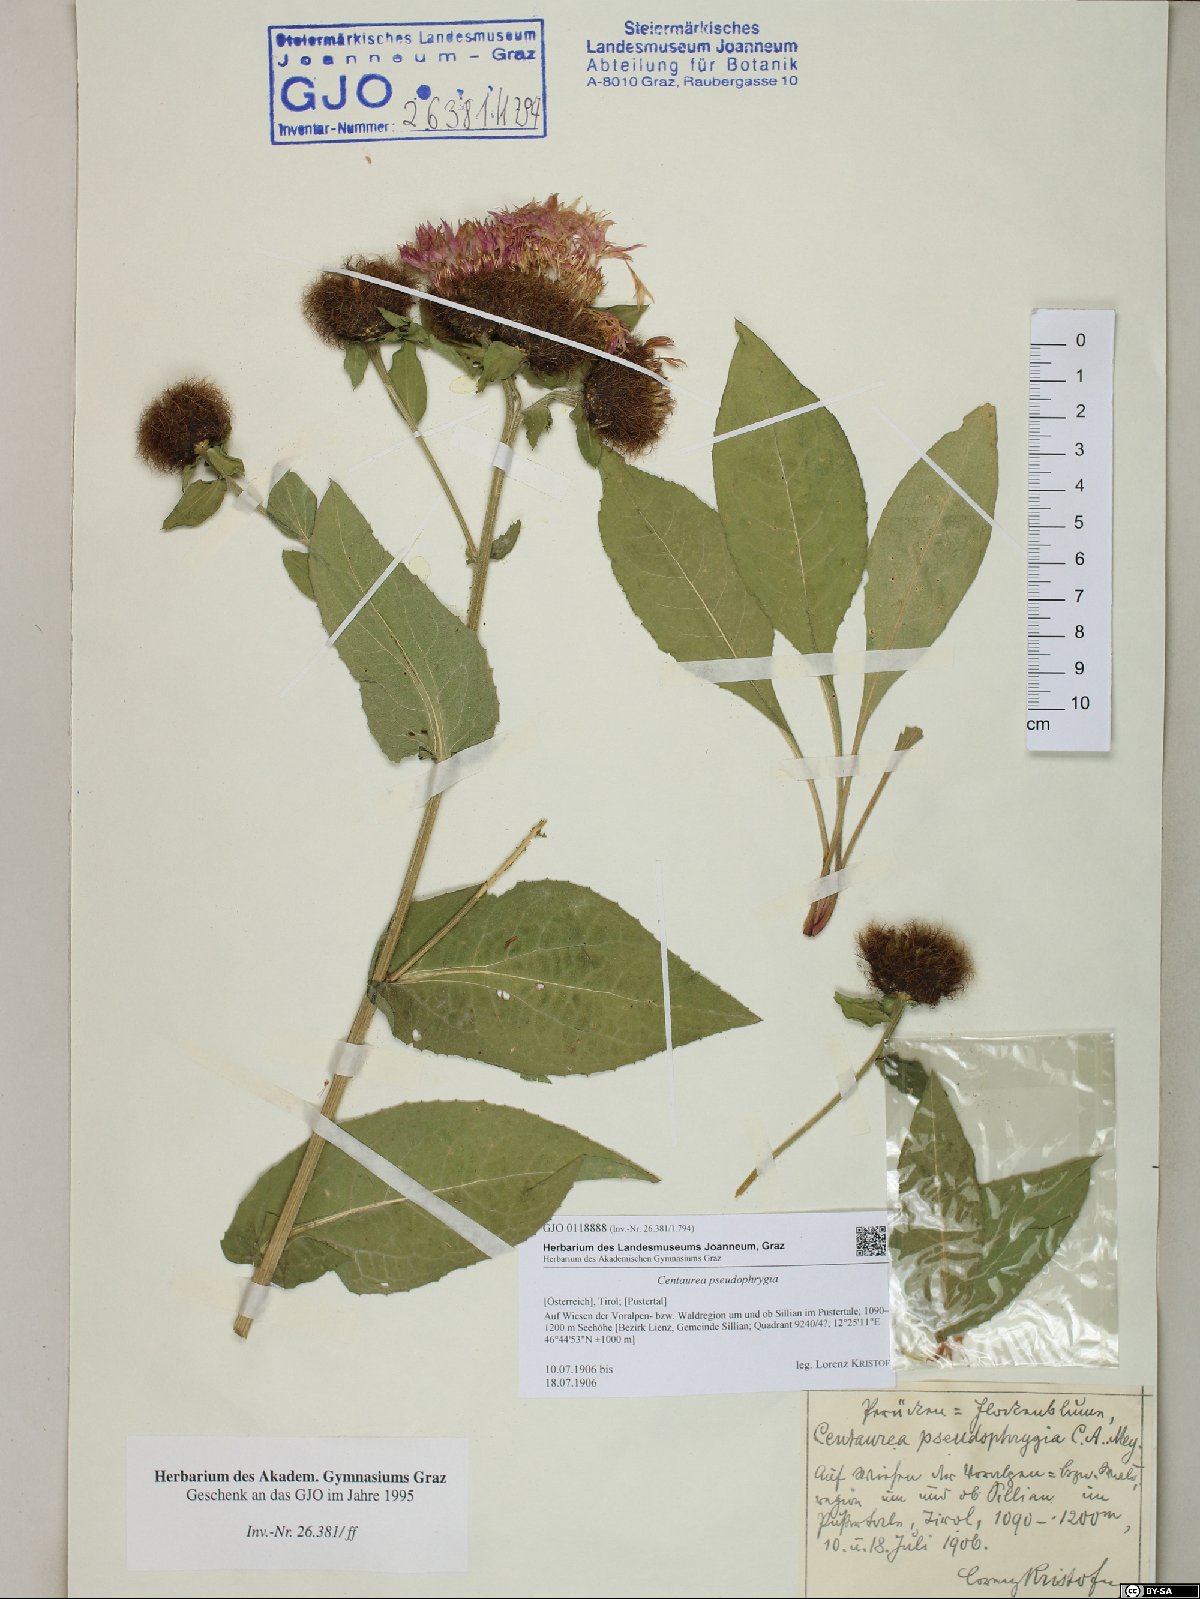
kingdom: Plantae
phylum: Tracheophyta
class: Magnoliopsida
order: Asterales
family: Asteraceae
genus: Centaurea
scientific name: Centaurea pseudophrygia
